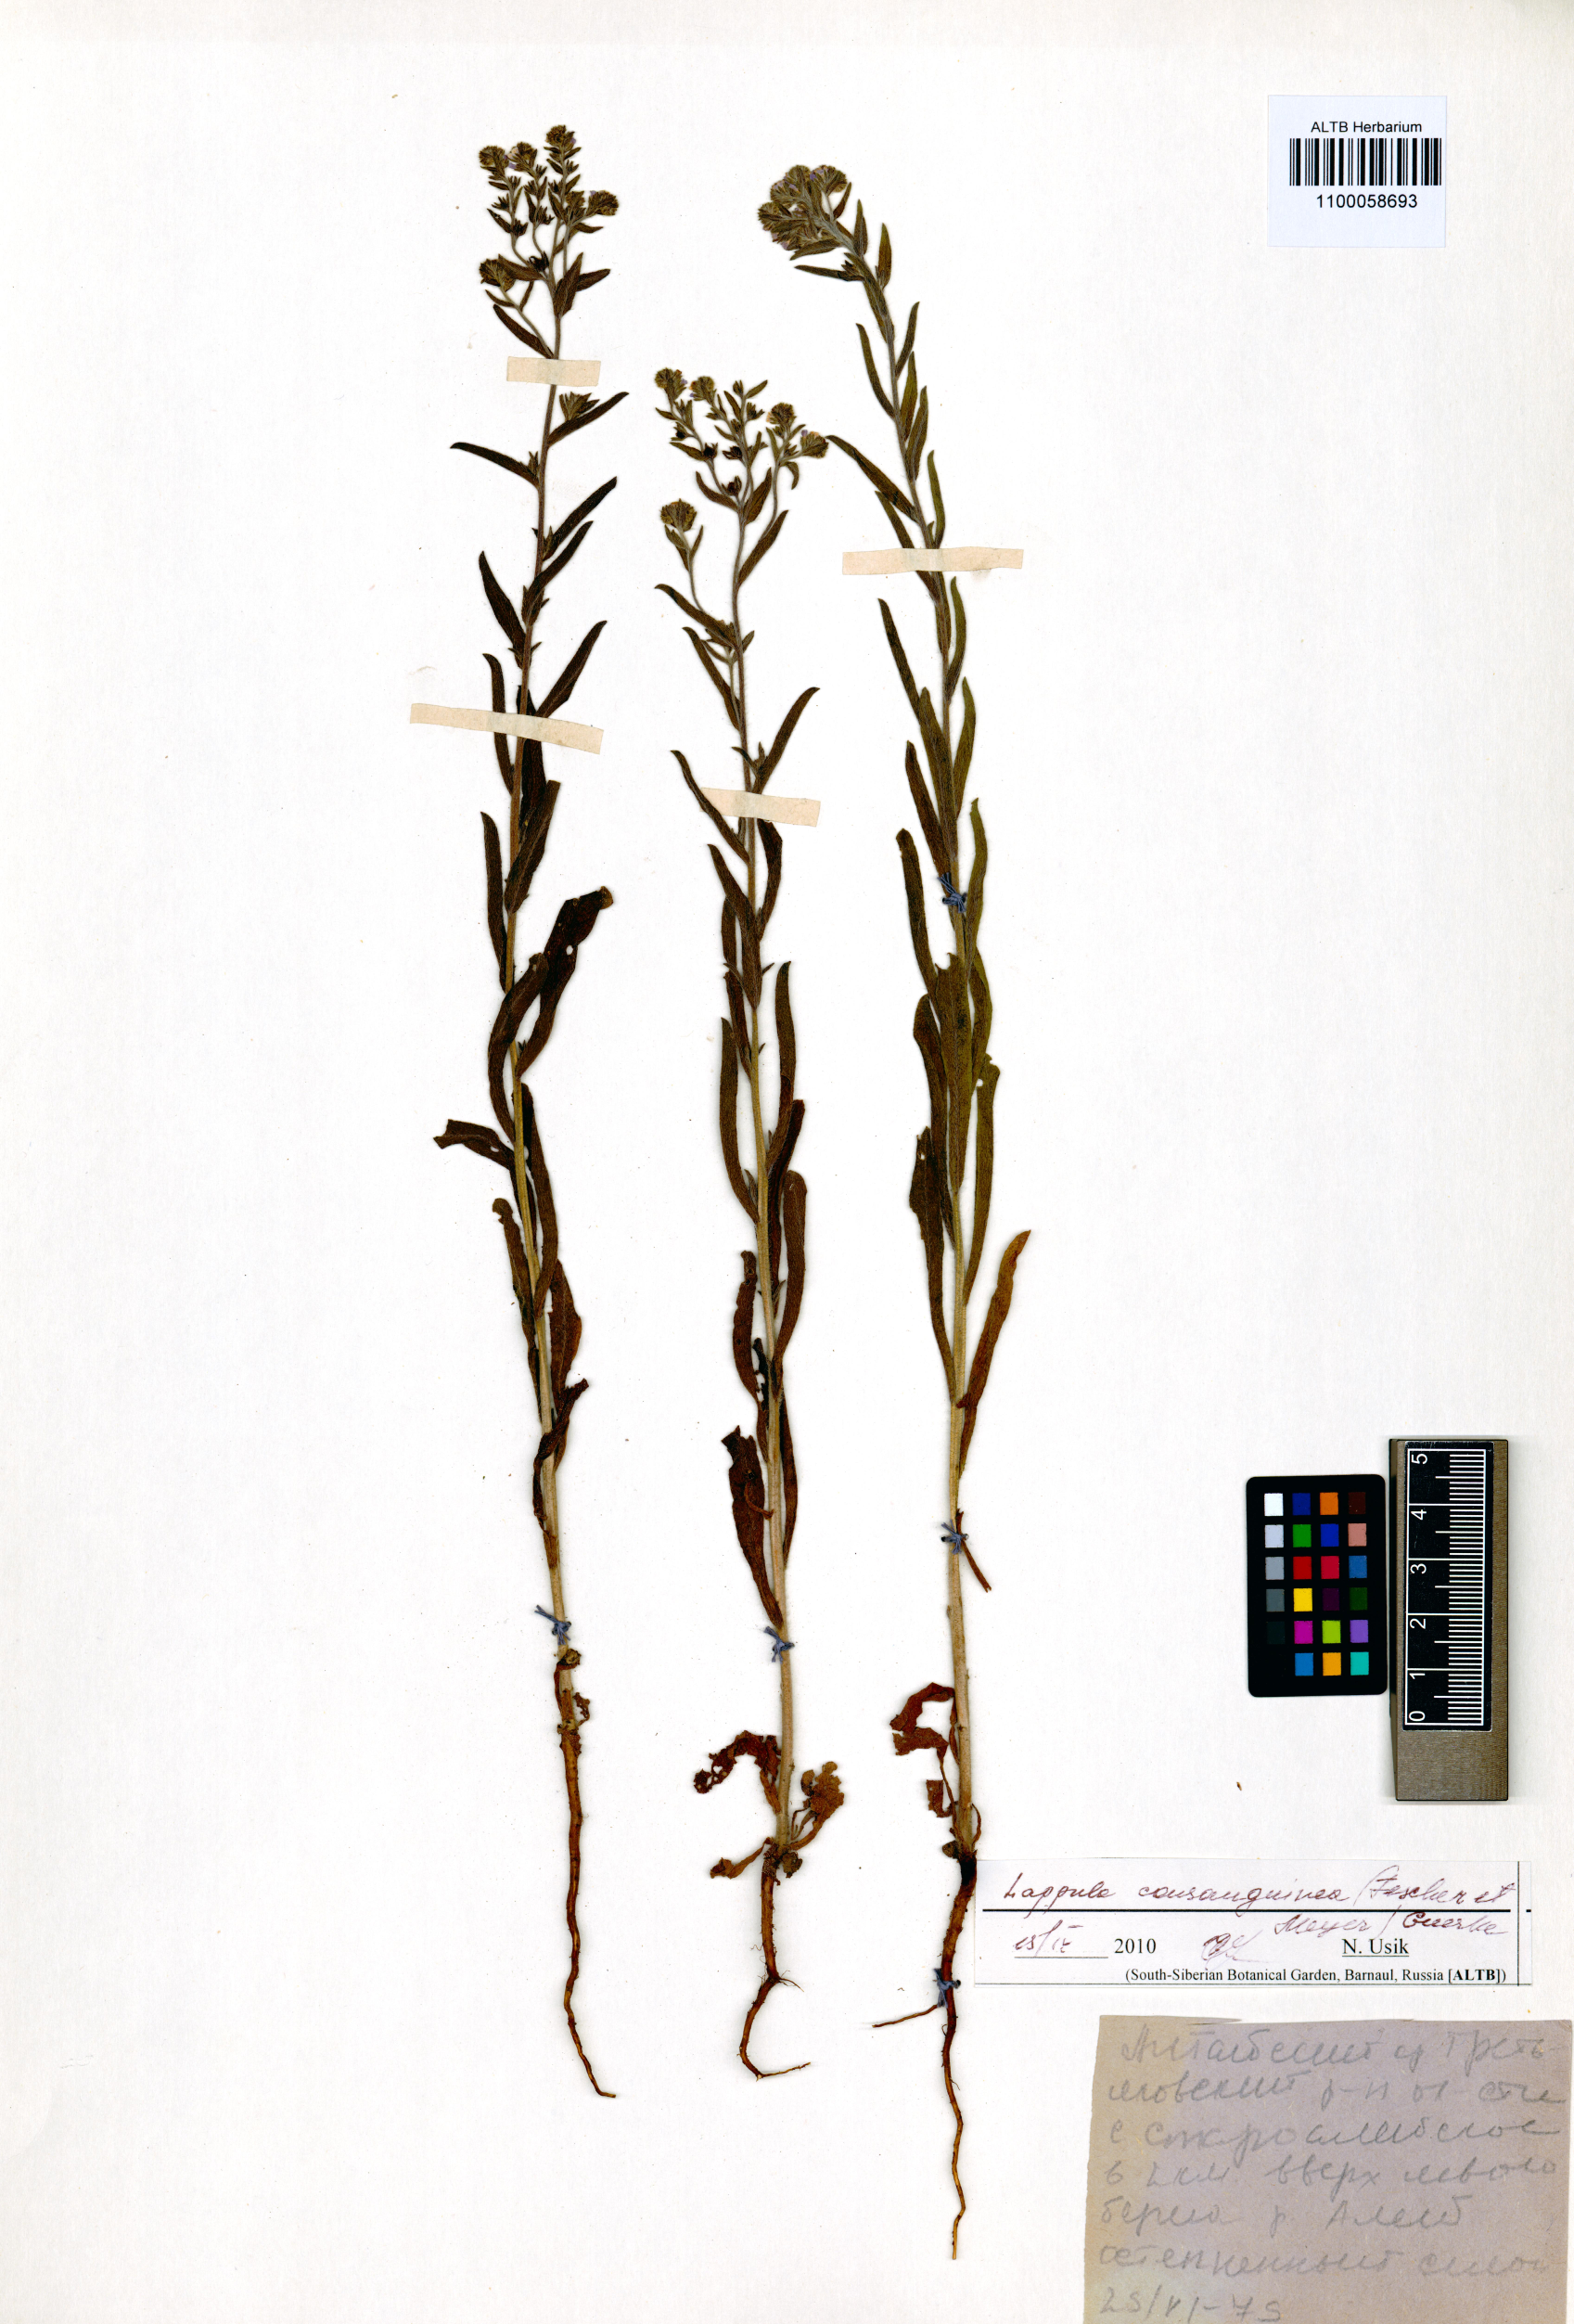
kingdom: Plantae
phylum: Tracheophyta
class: Magnoliopsida
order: Boraginales
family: Boraginaceae
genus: Lappula
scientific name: Lappula squarrosa
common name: European stickseed
